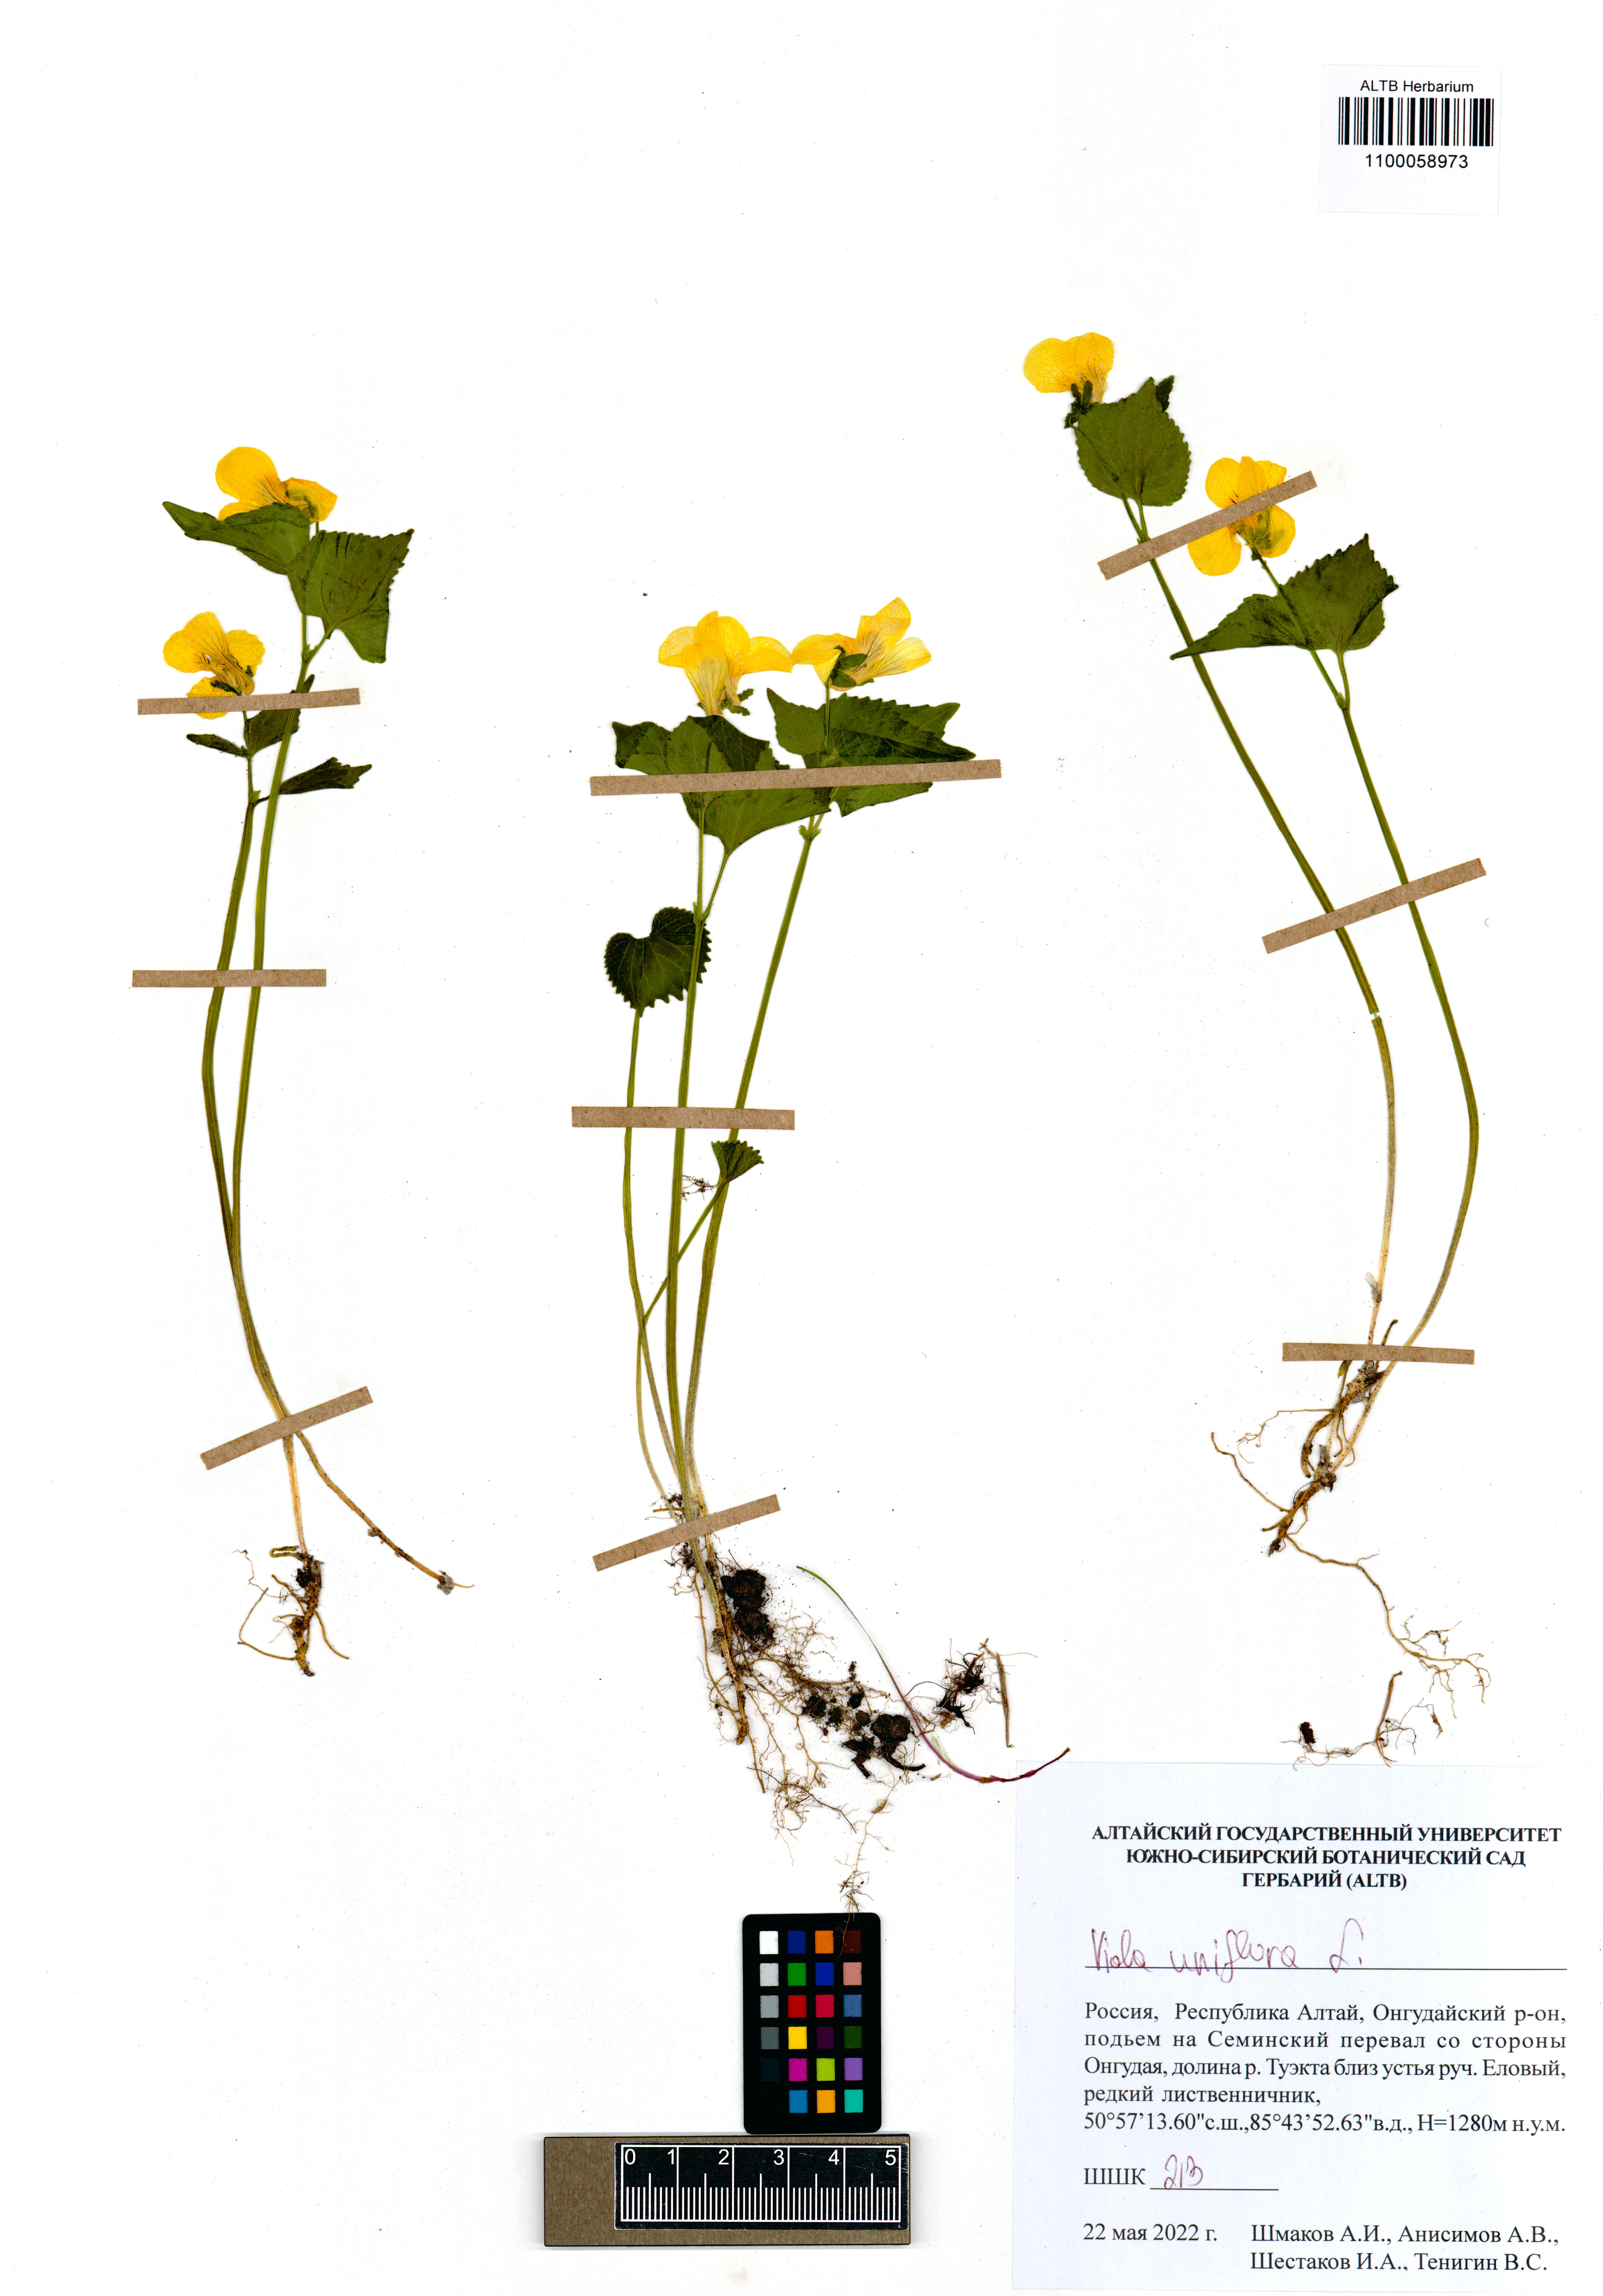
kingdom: Plantae
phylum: Tracheophyta
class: Magnoliopsida
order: Malpighiales
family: Violaceae
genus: Viola
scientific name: Viola uniflora
